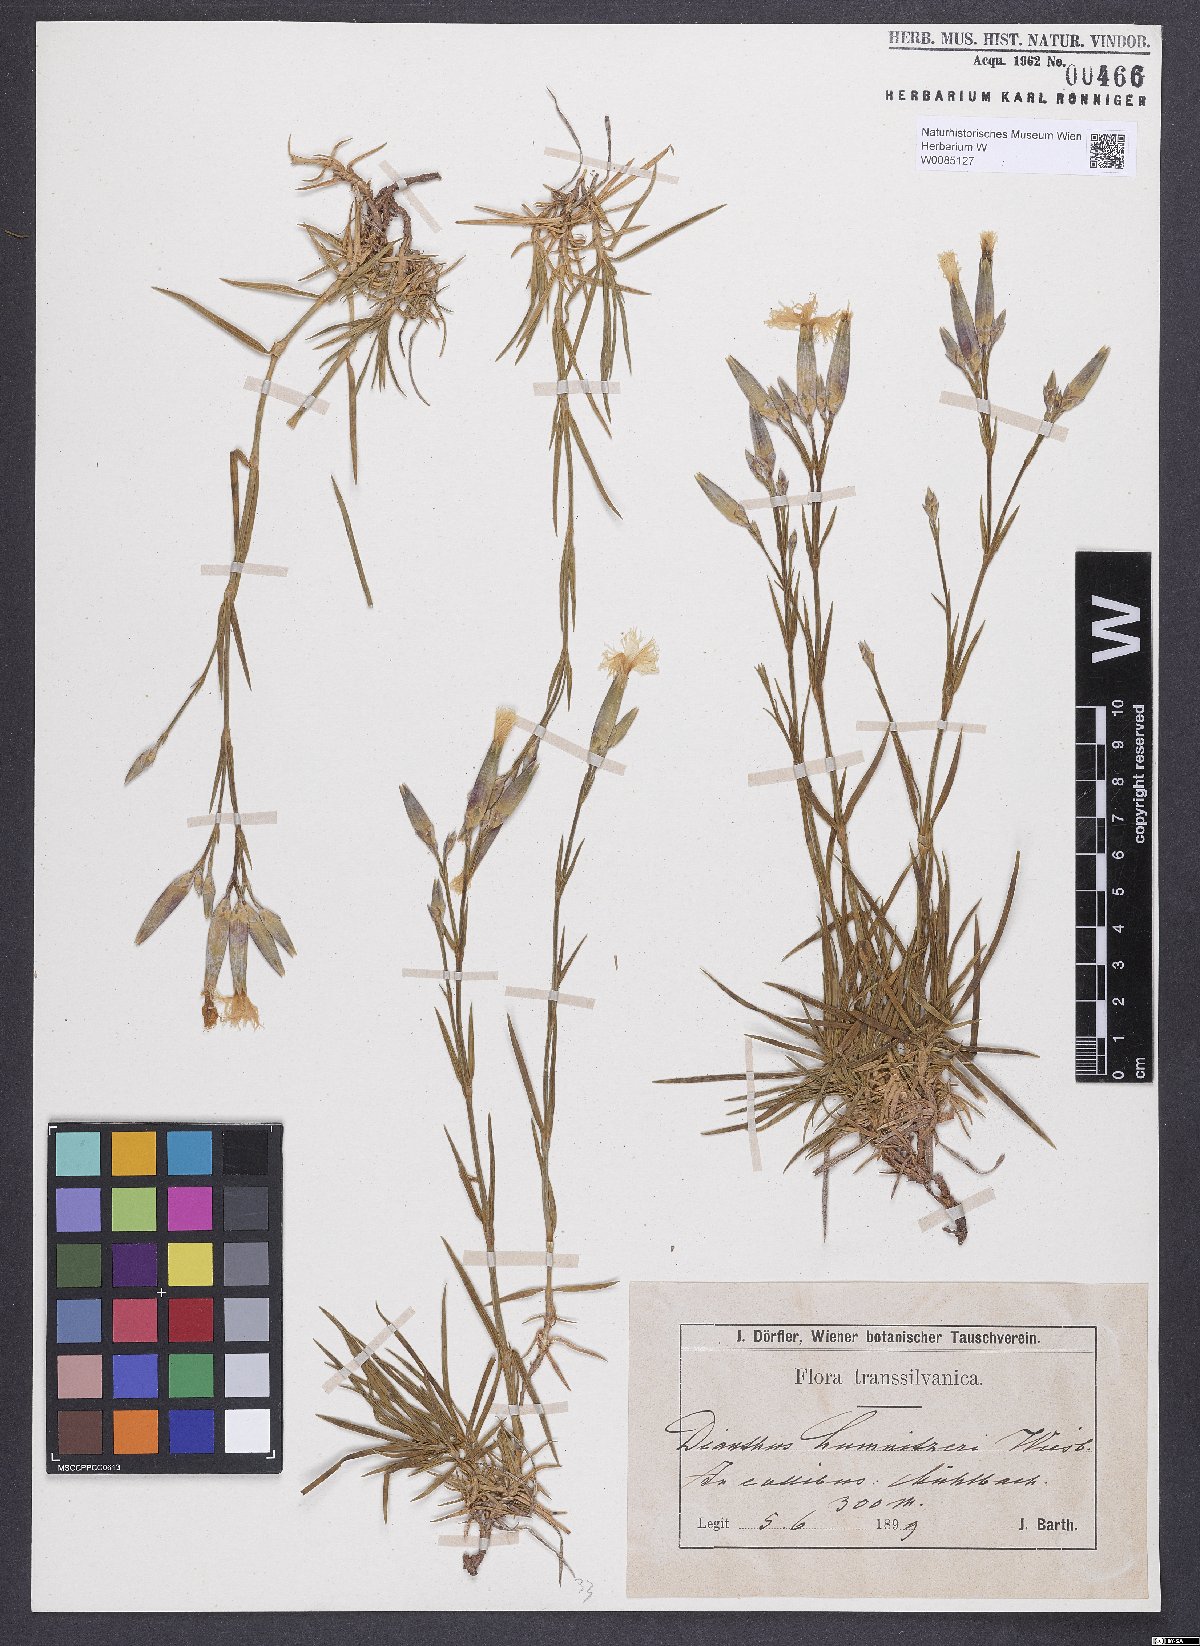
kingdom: Plantae
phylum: Tracheophyta
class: Magnoliopsida
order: Caryophyllales
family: Caryophyllaceae
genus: Dianthus
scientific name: Dianthus praecox
